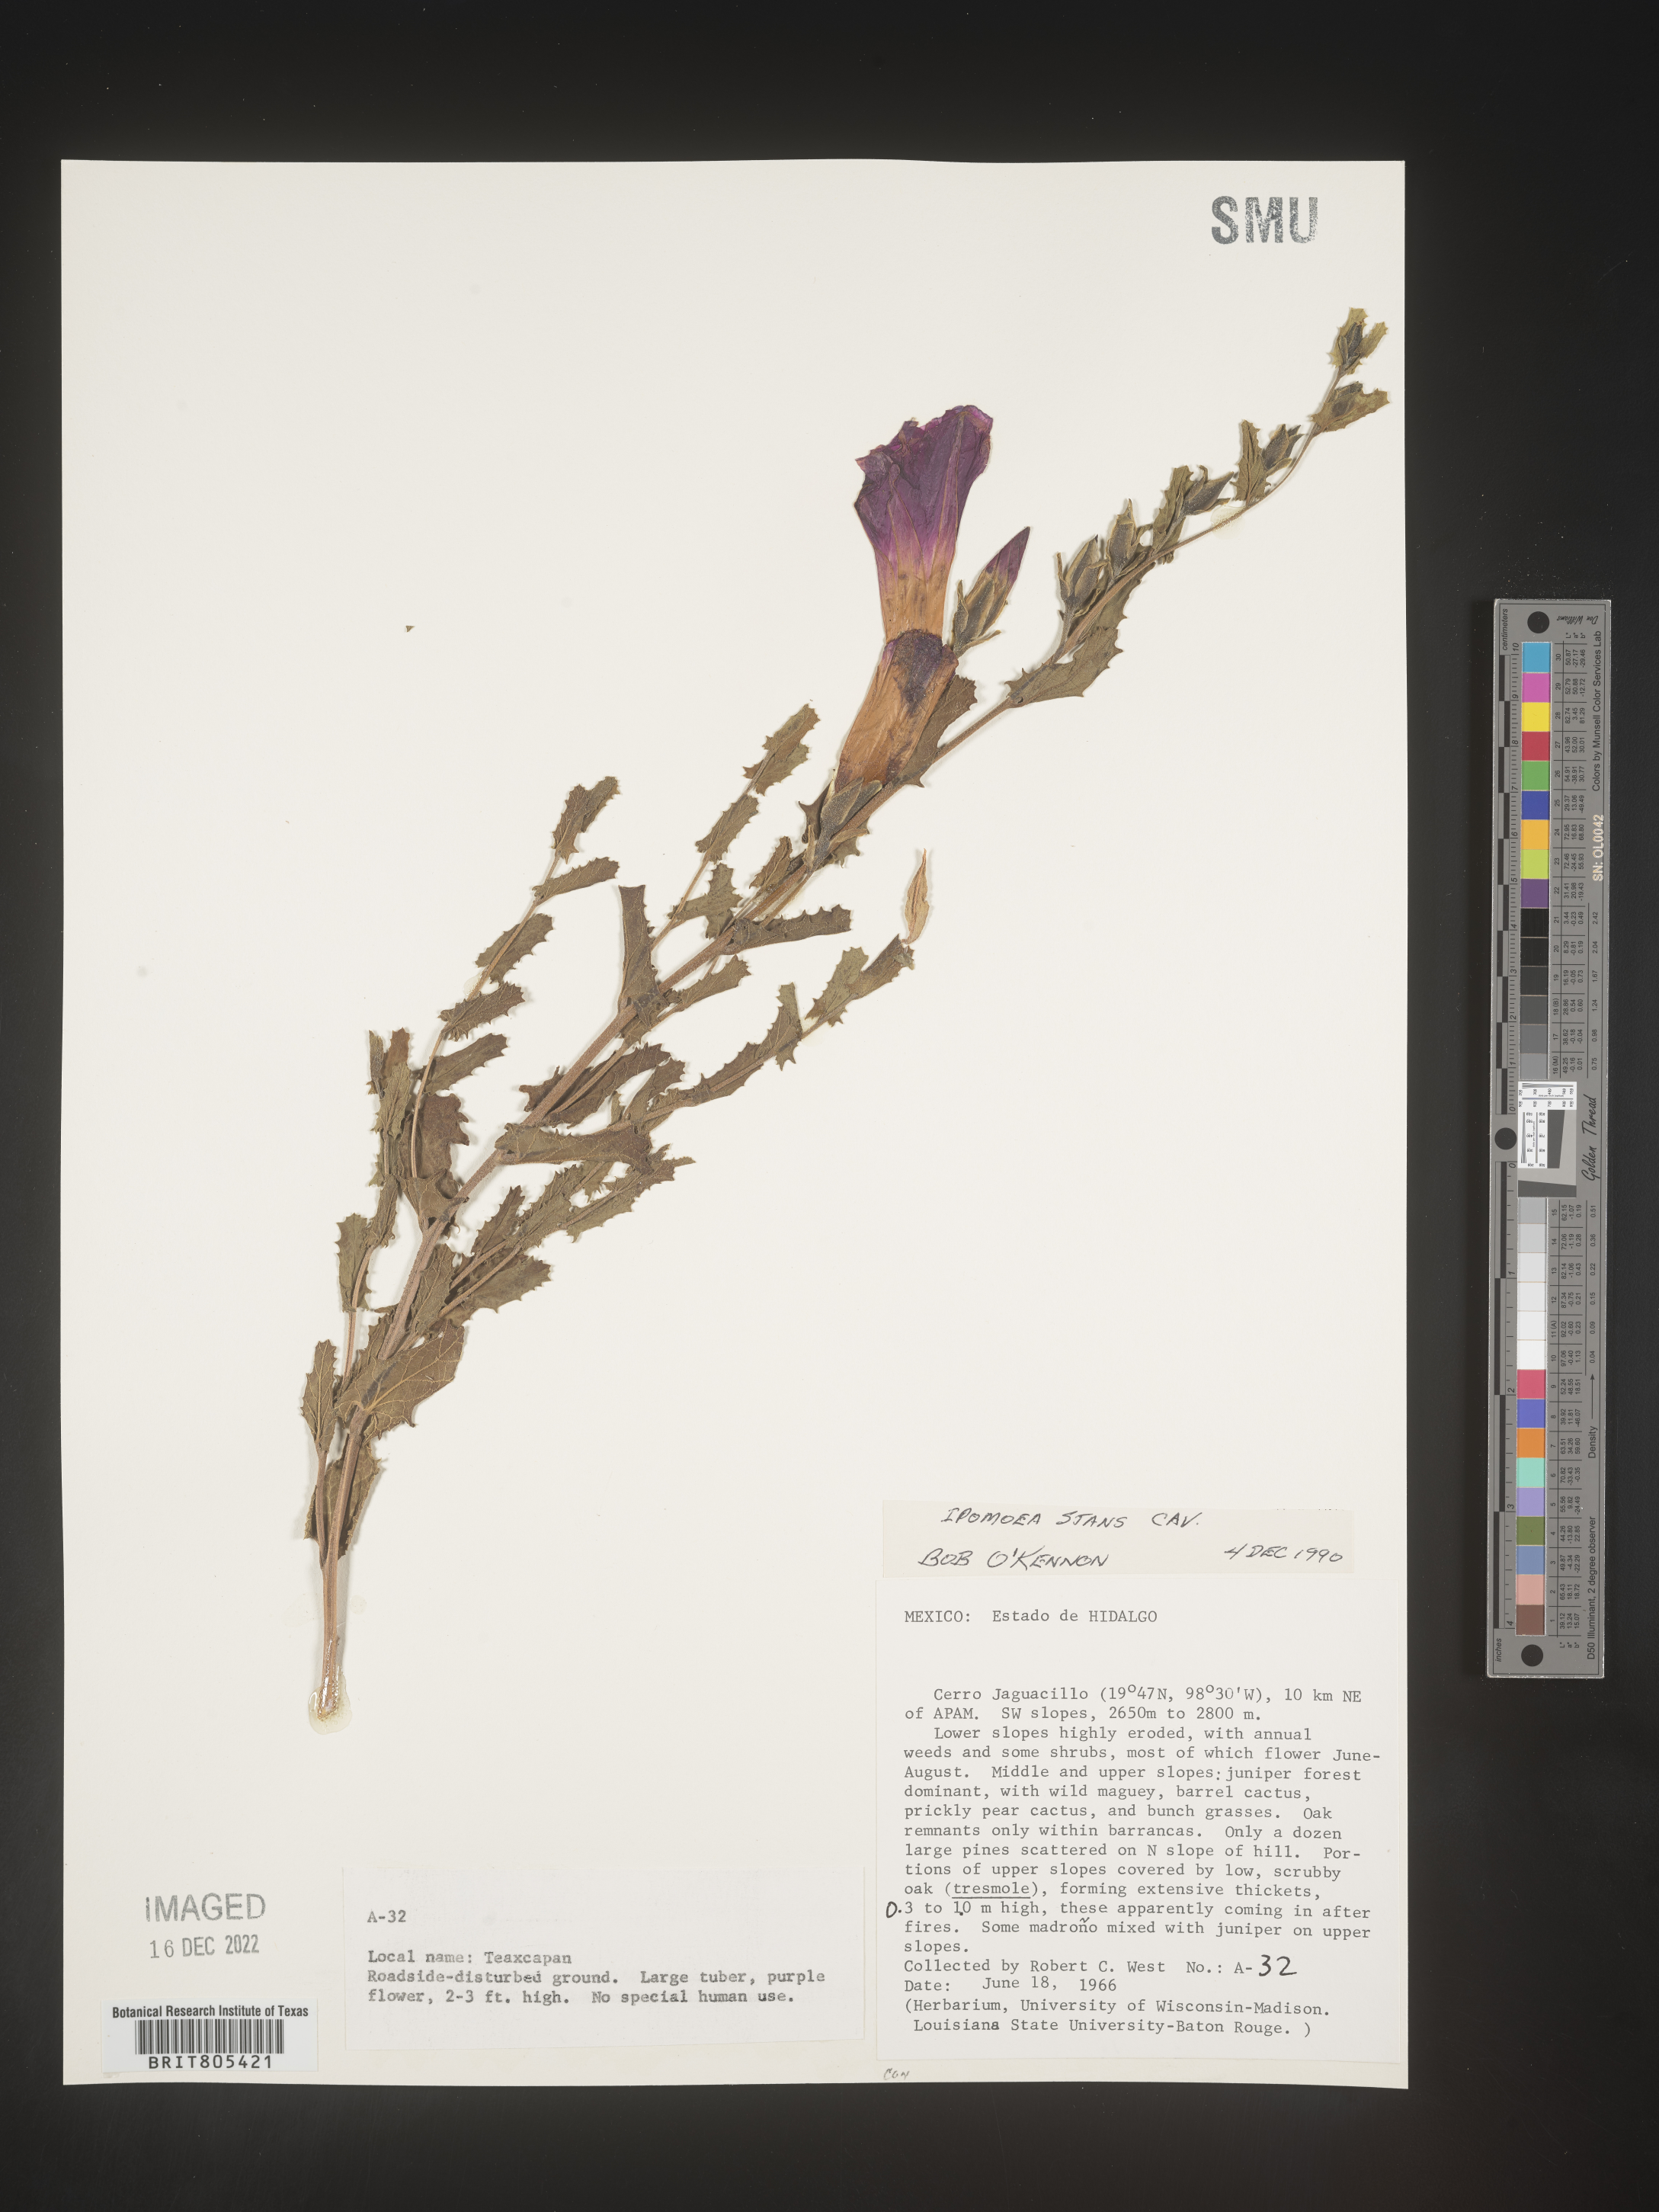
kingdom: Plantae
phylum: Tracheophyta
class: Magnoliopsida
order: Solanales
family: Convolvulaceae
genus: Ipomoea
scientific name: Ipomoea
